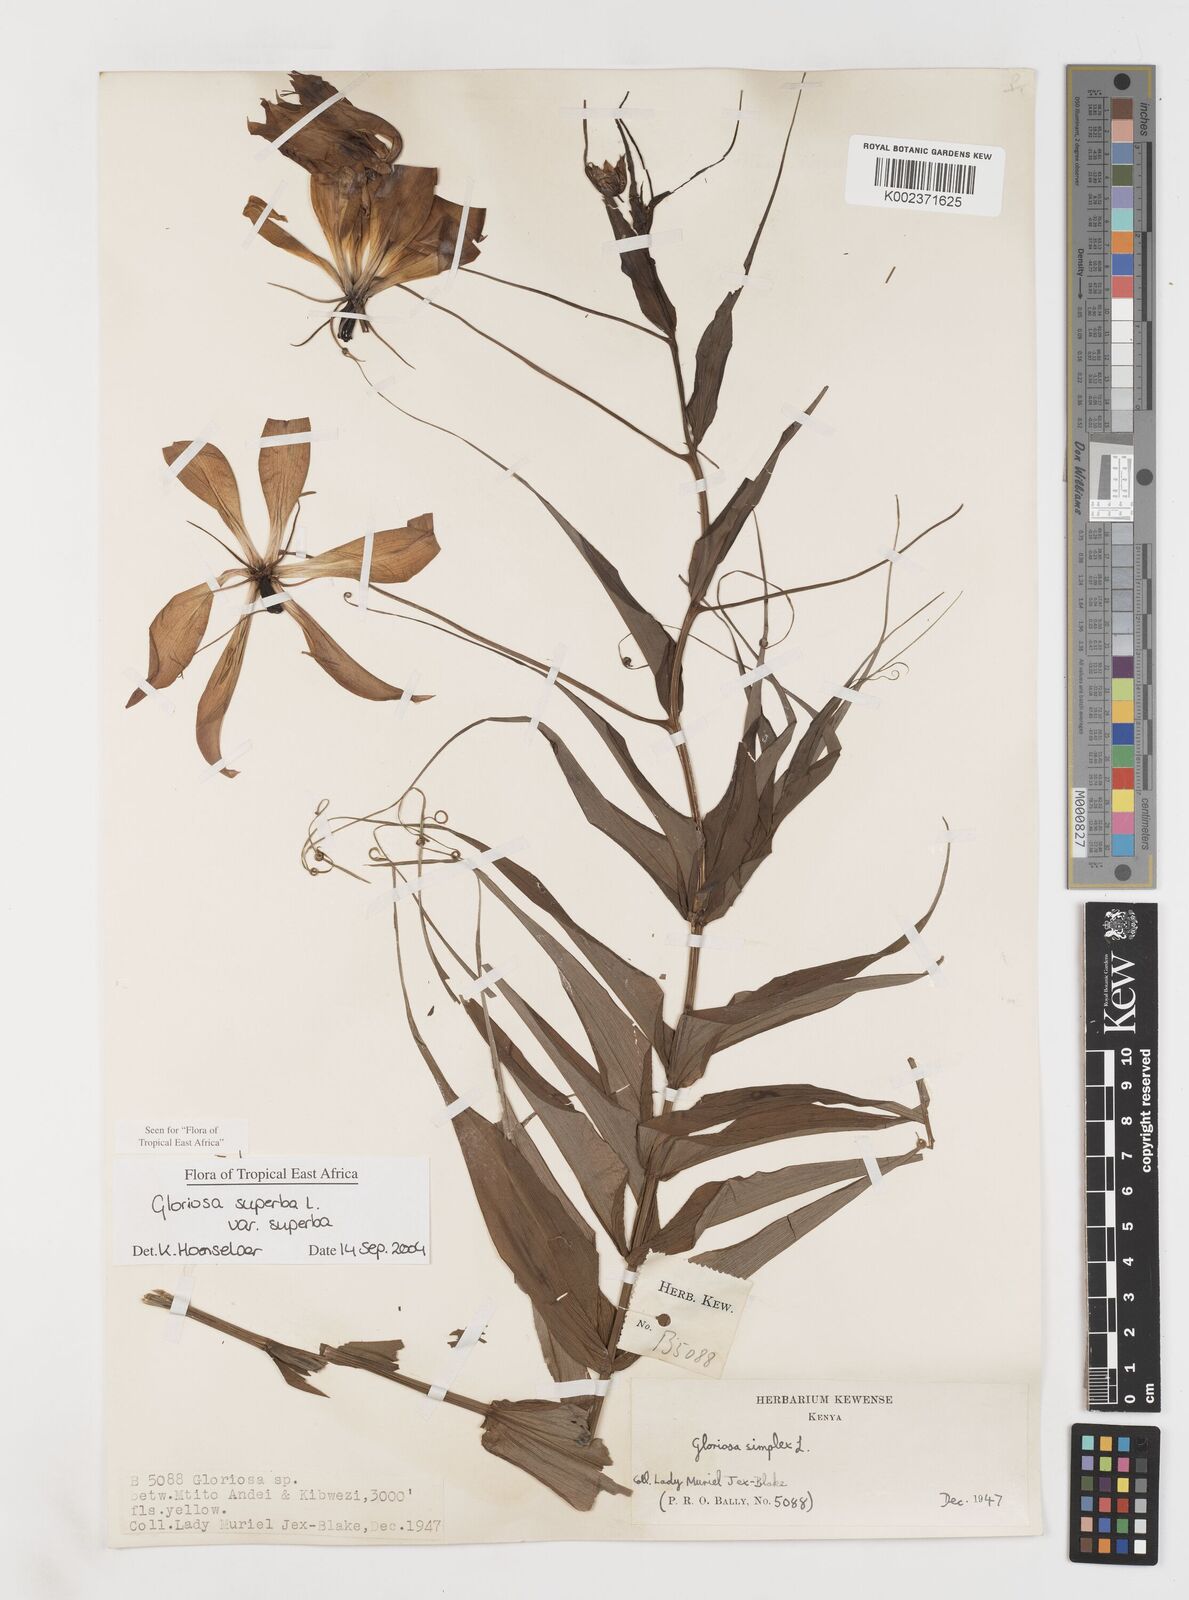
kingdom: Plantae
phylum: Tracheophyta
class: Liliopsida
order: Liliales
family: Colchicaceae
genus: Gloriosa
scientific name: Gloriosa simplex
